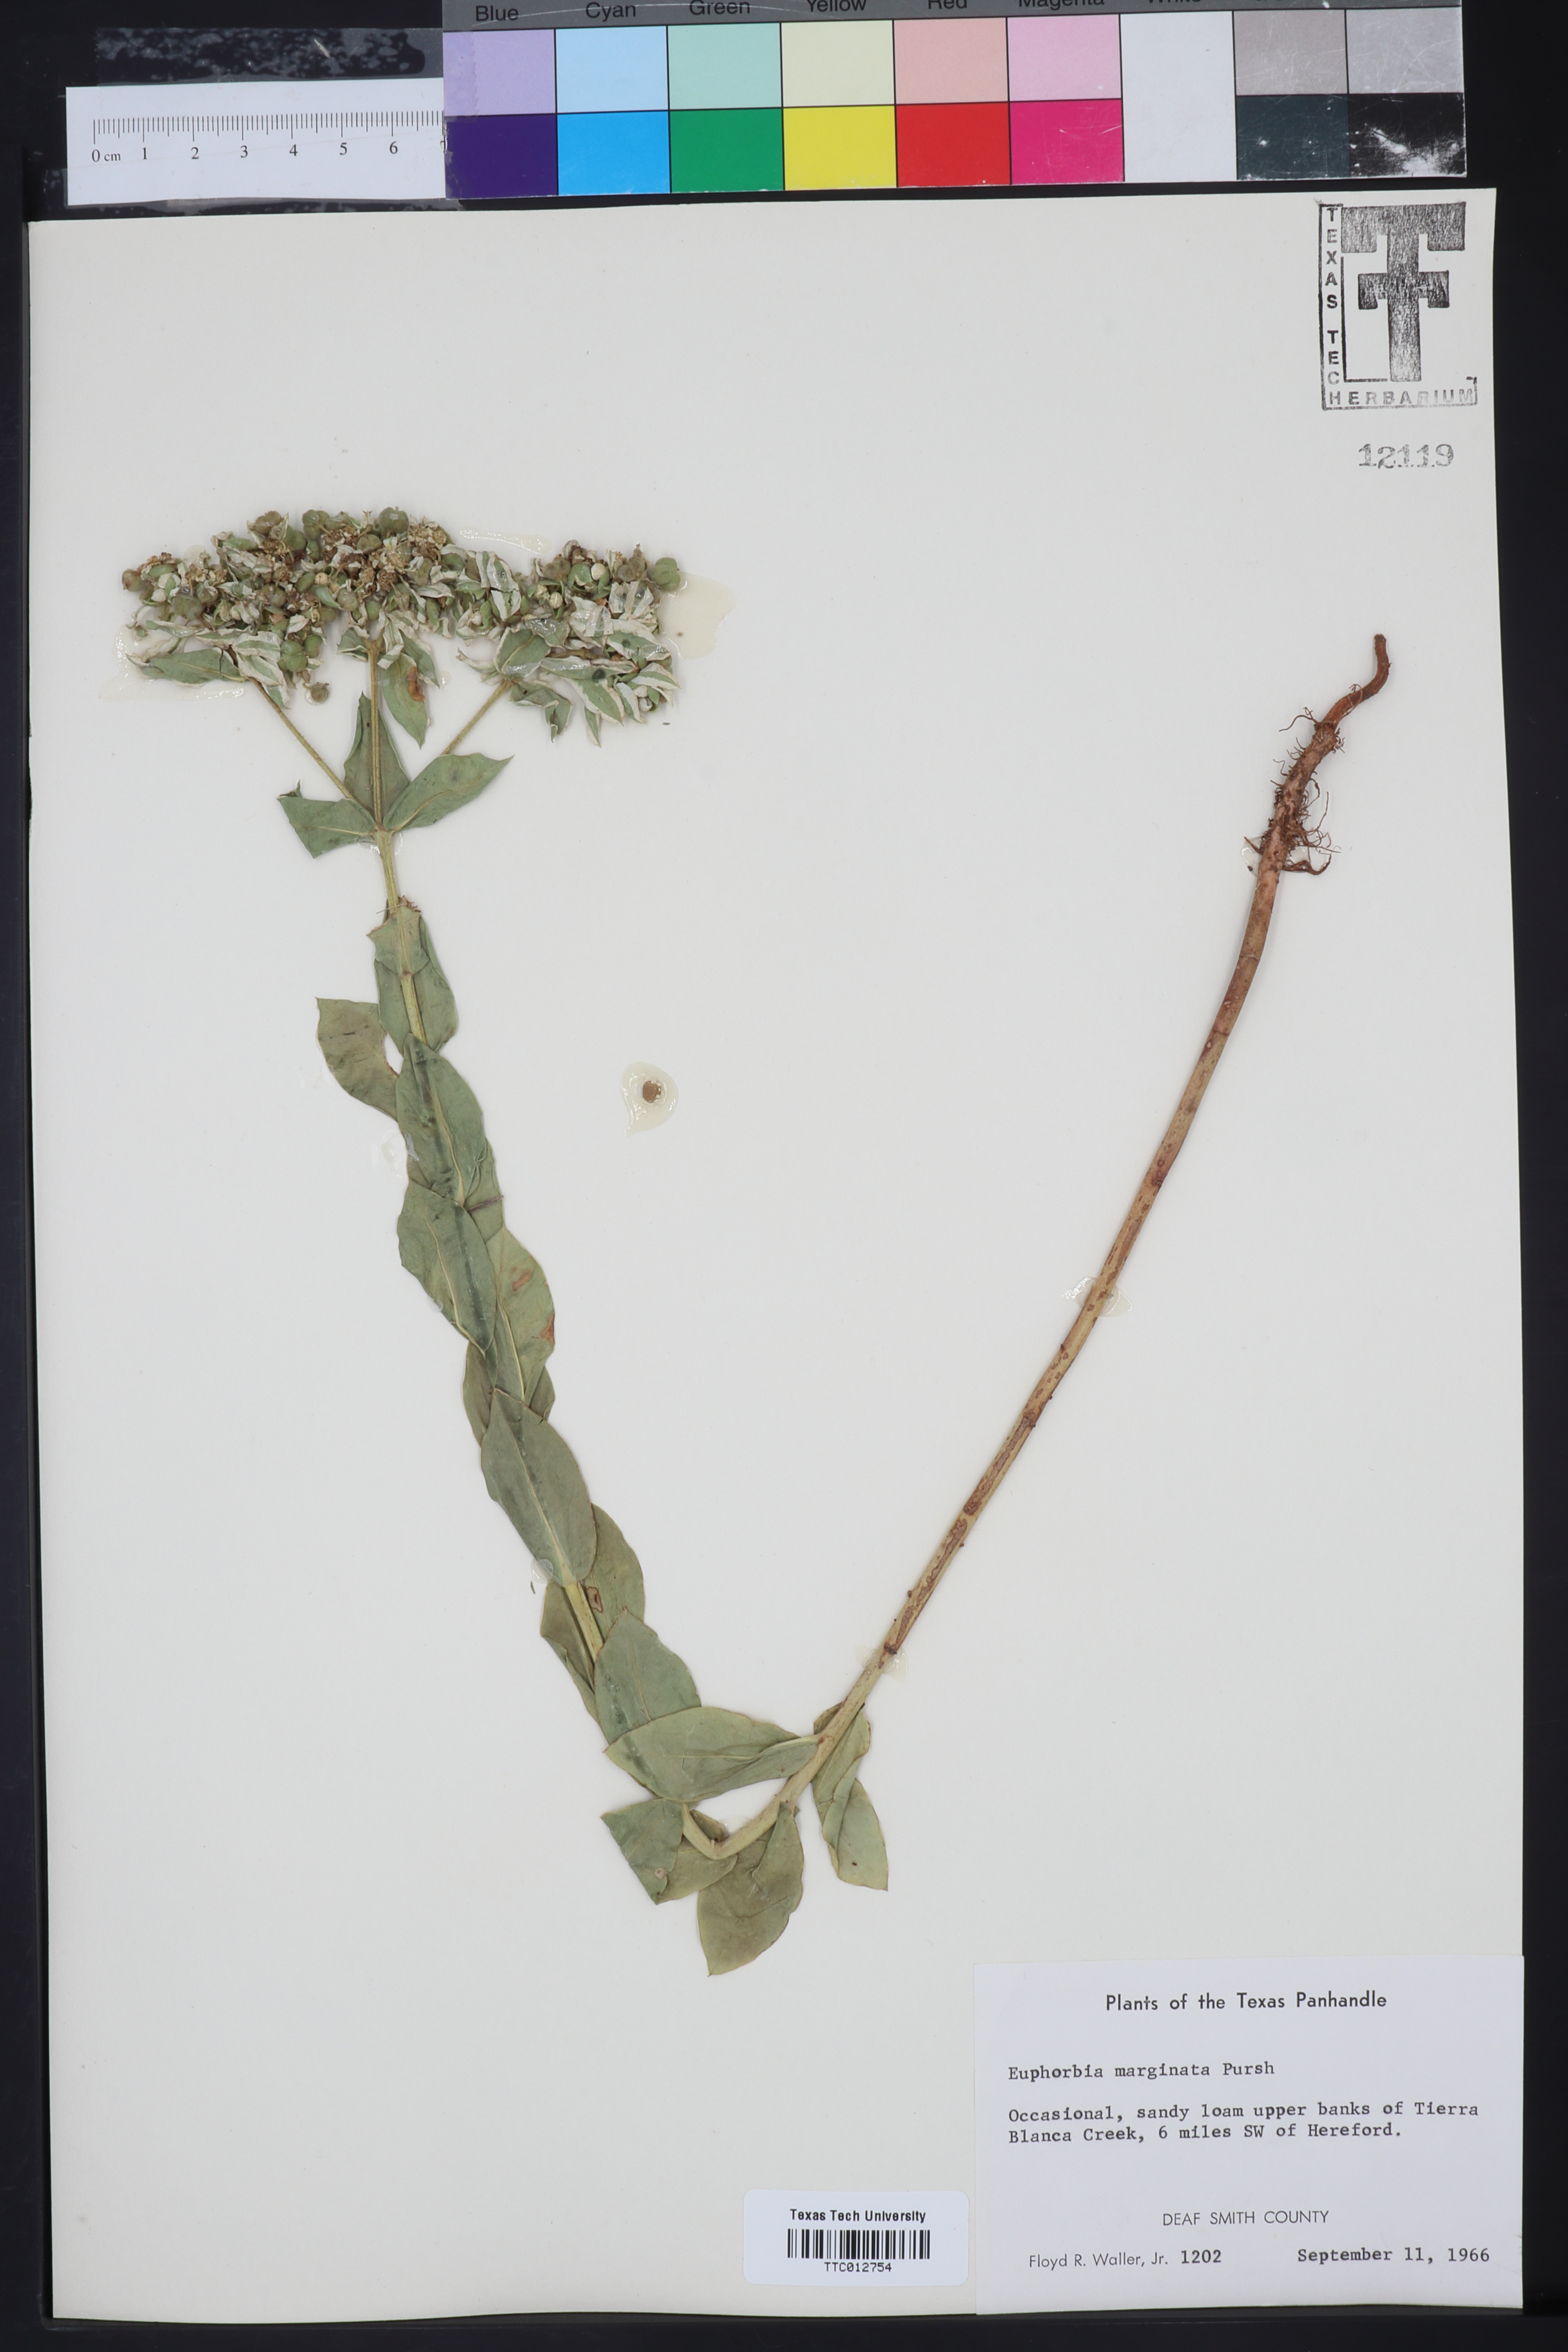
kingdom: Plantae
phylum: Tracheophyta
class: Magnoliopsida
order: Malpighiales
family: Euphorbiaceae
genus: Euphorbia
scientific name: Euphorbia marginata
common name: Ghostweed
